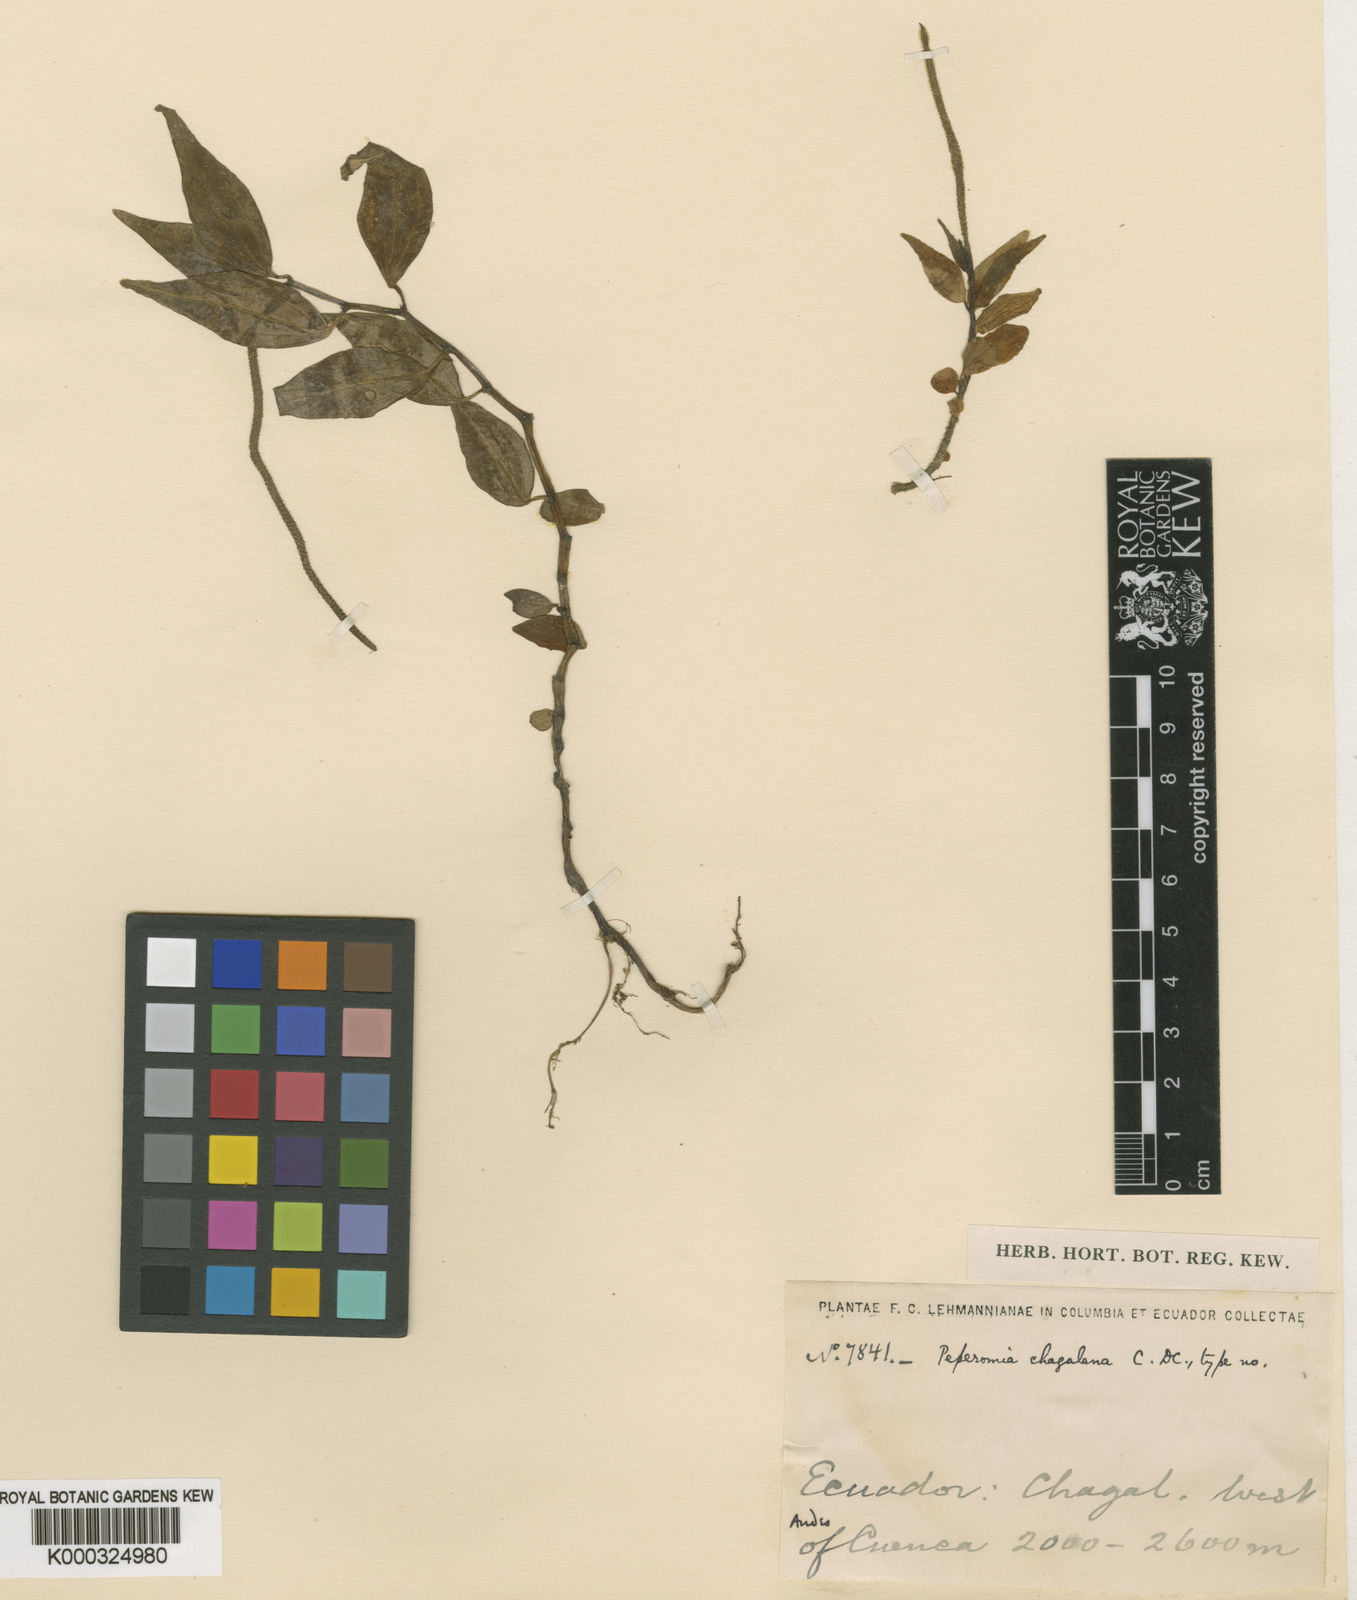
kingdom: Plantae
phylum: Tracheophyta
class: Magnoliopsida
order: Piperales
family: Piperaceae
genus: Peperomia
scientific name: Peperomia glabella
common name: Cypress peperomia
